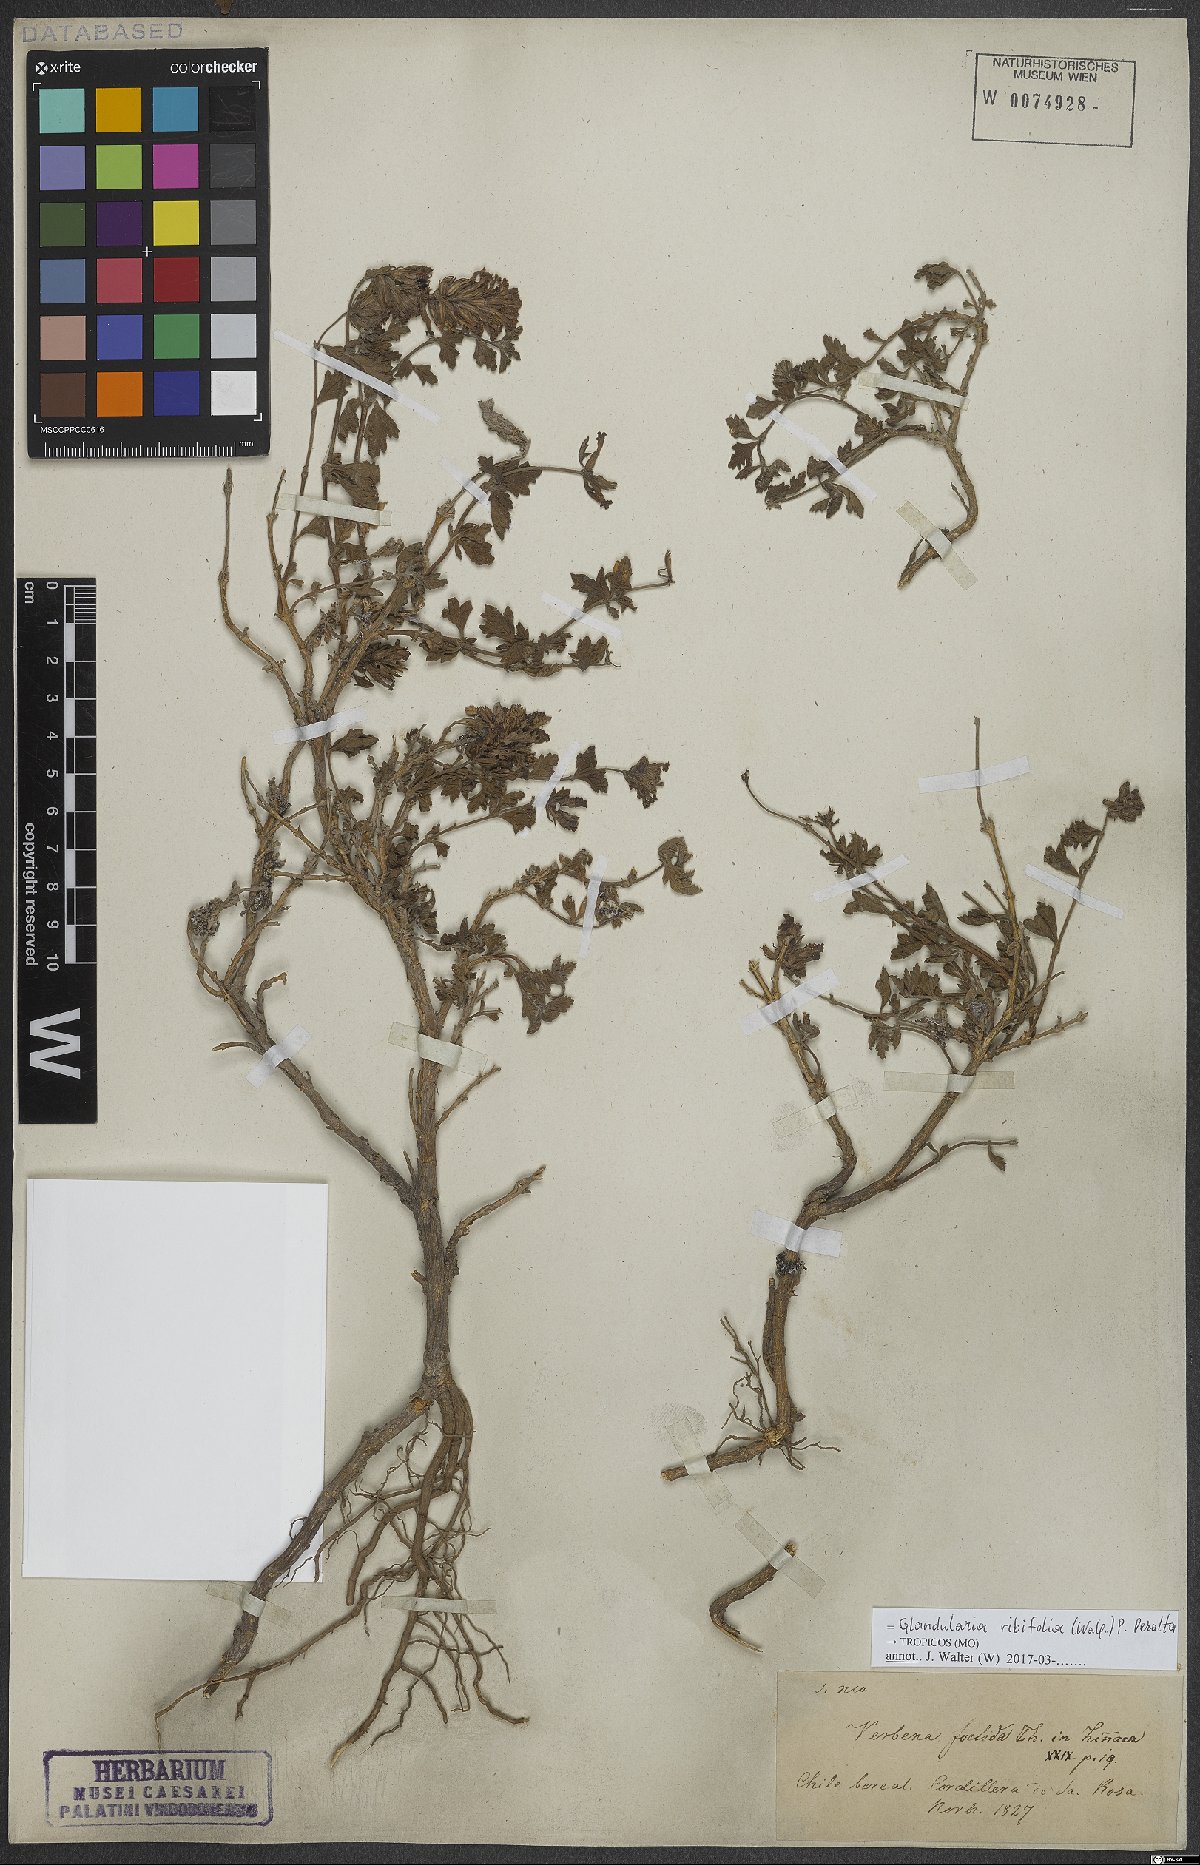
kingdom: Plantae
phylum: Tracheophyta
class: Magnoliopsida
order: Lamiales
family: Verbenaceae
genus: Verbena
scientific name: Verbena ribifolia
